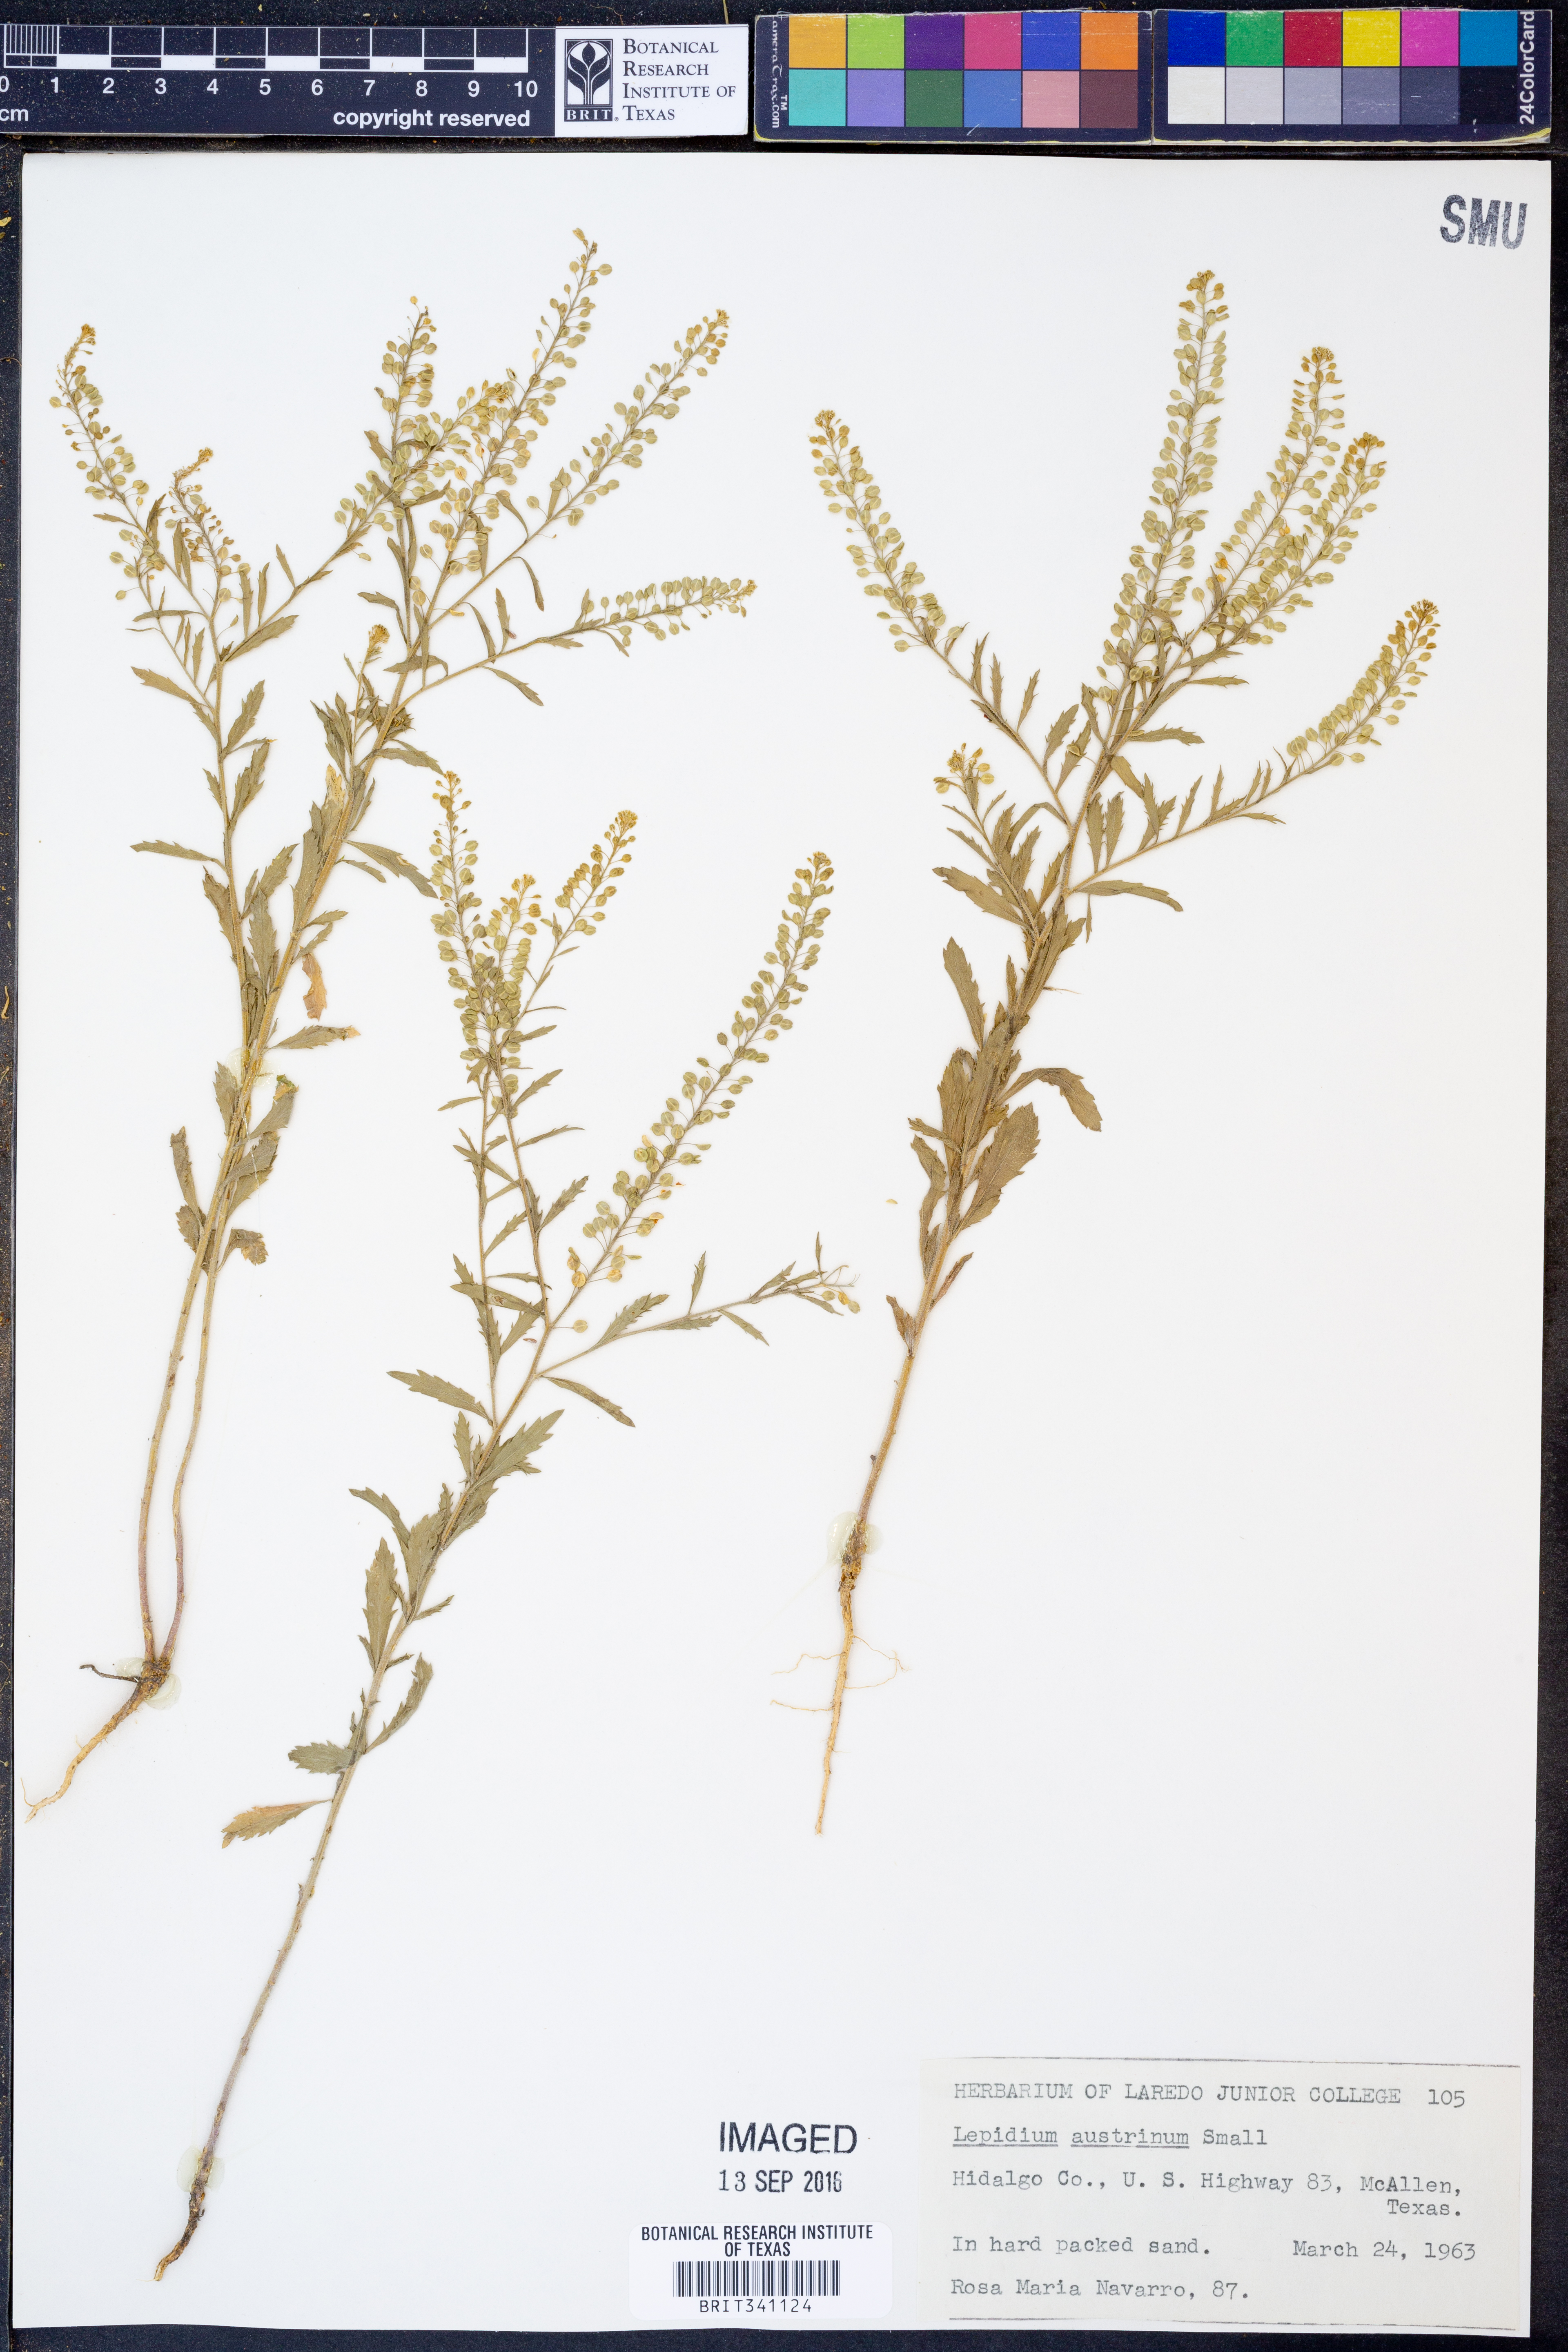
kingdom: Plantae
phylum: Tracheophyta
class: Magnoliopsida
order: Brassicales
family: Brassicaceae
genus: Lepidium
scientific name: Lepidium austrinum
